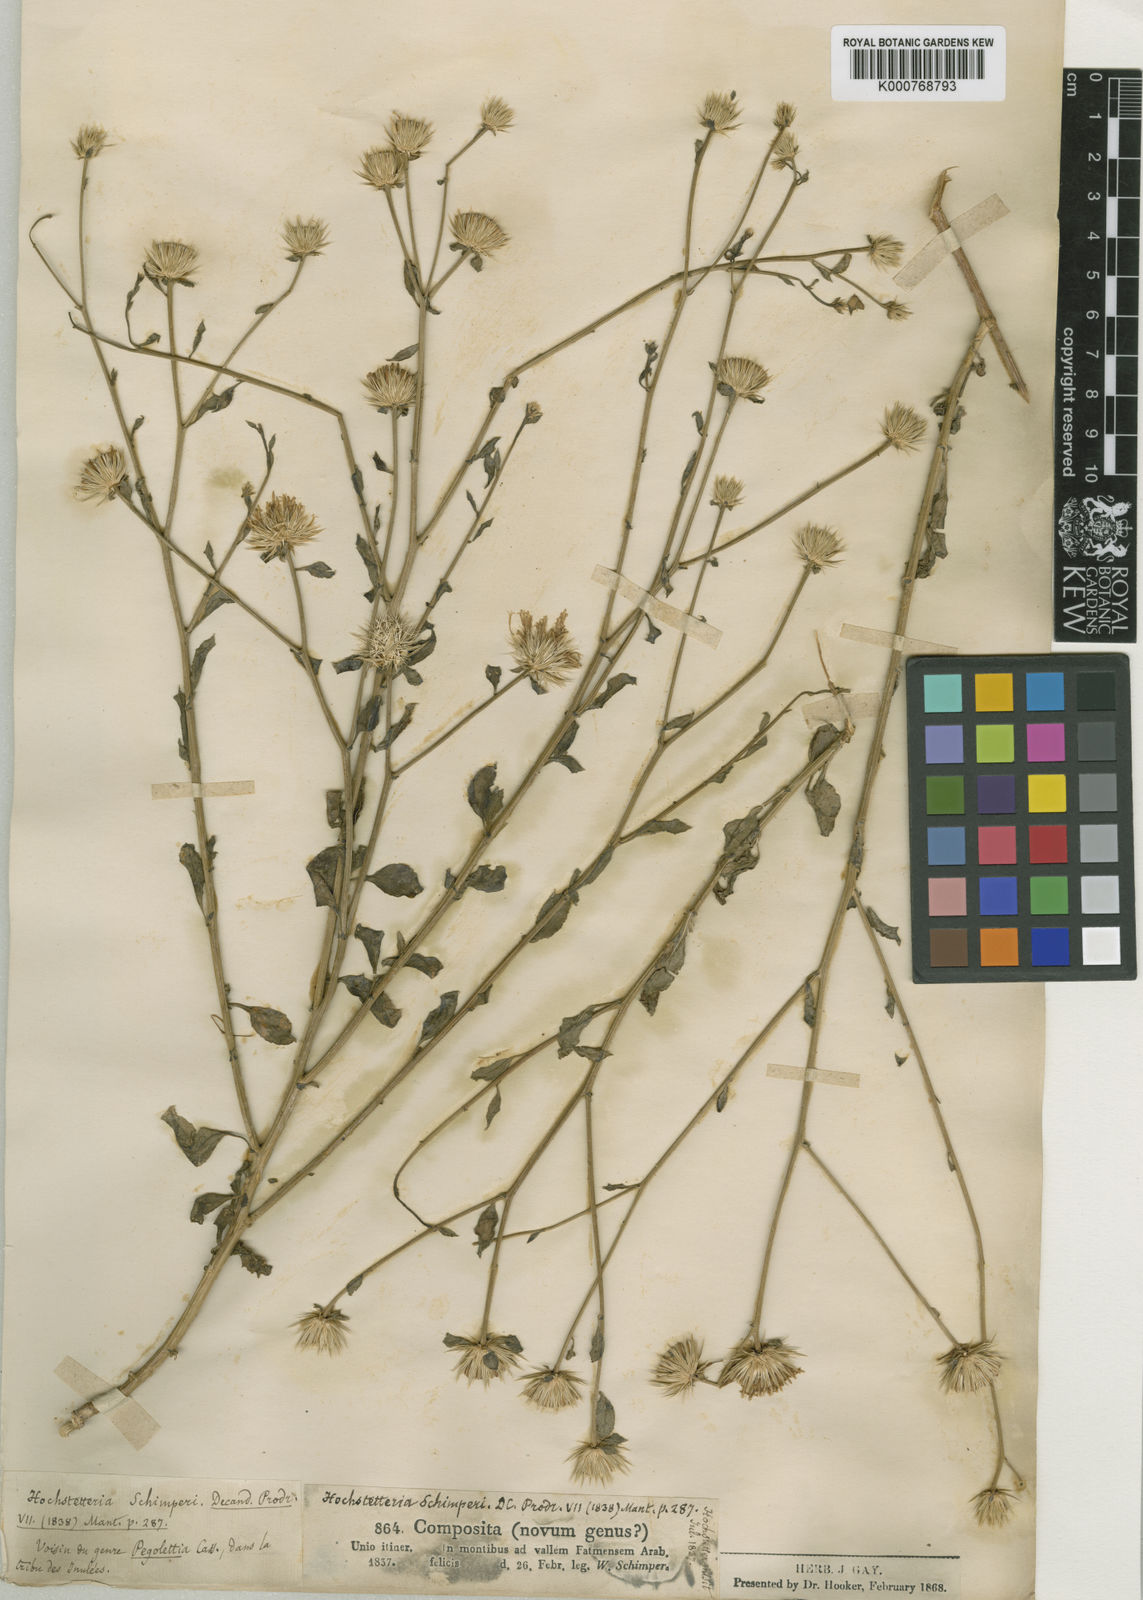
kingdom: Plantae
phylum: Tracheophyta
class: Magnoliopsida
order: Asterales
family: Asteraceae
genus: Dicoma
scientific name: Dicoma schimperi
